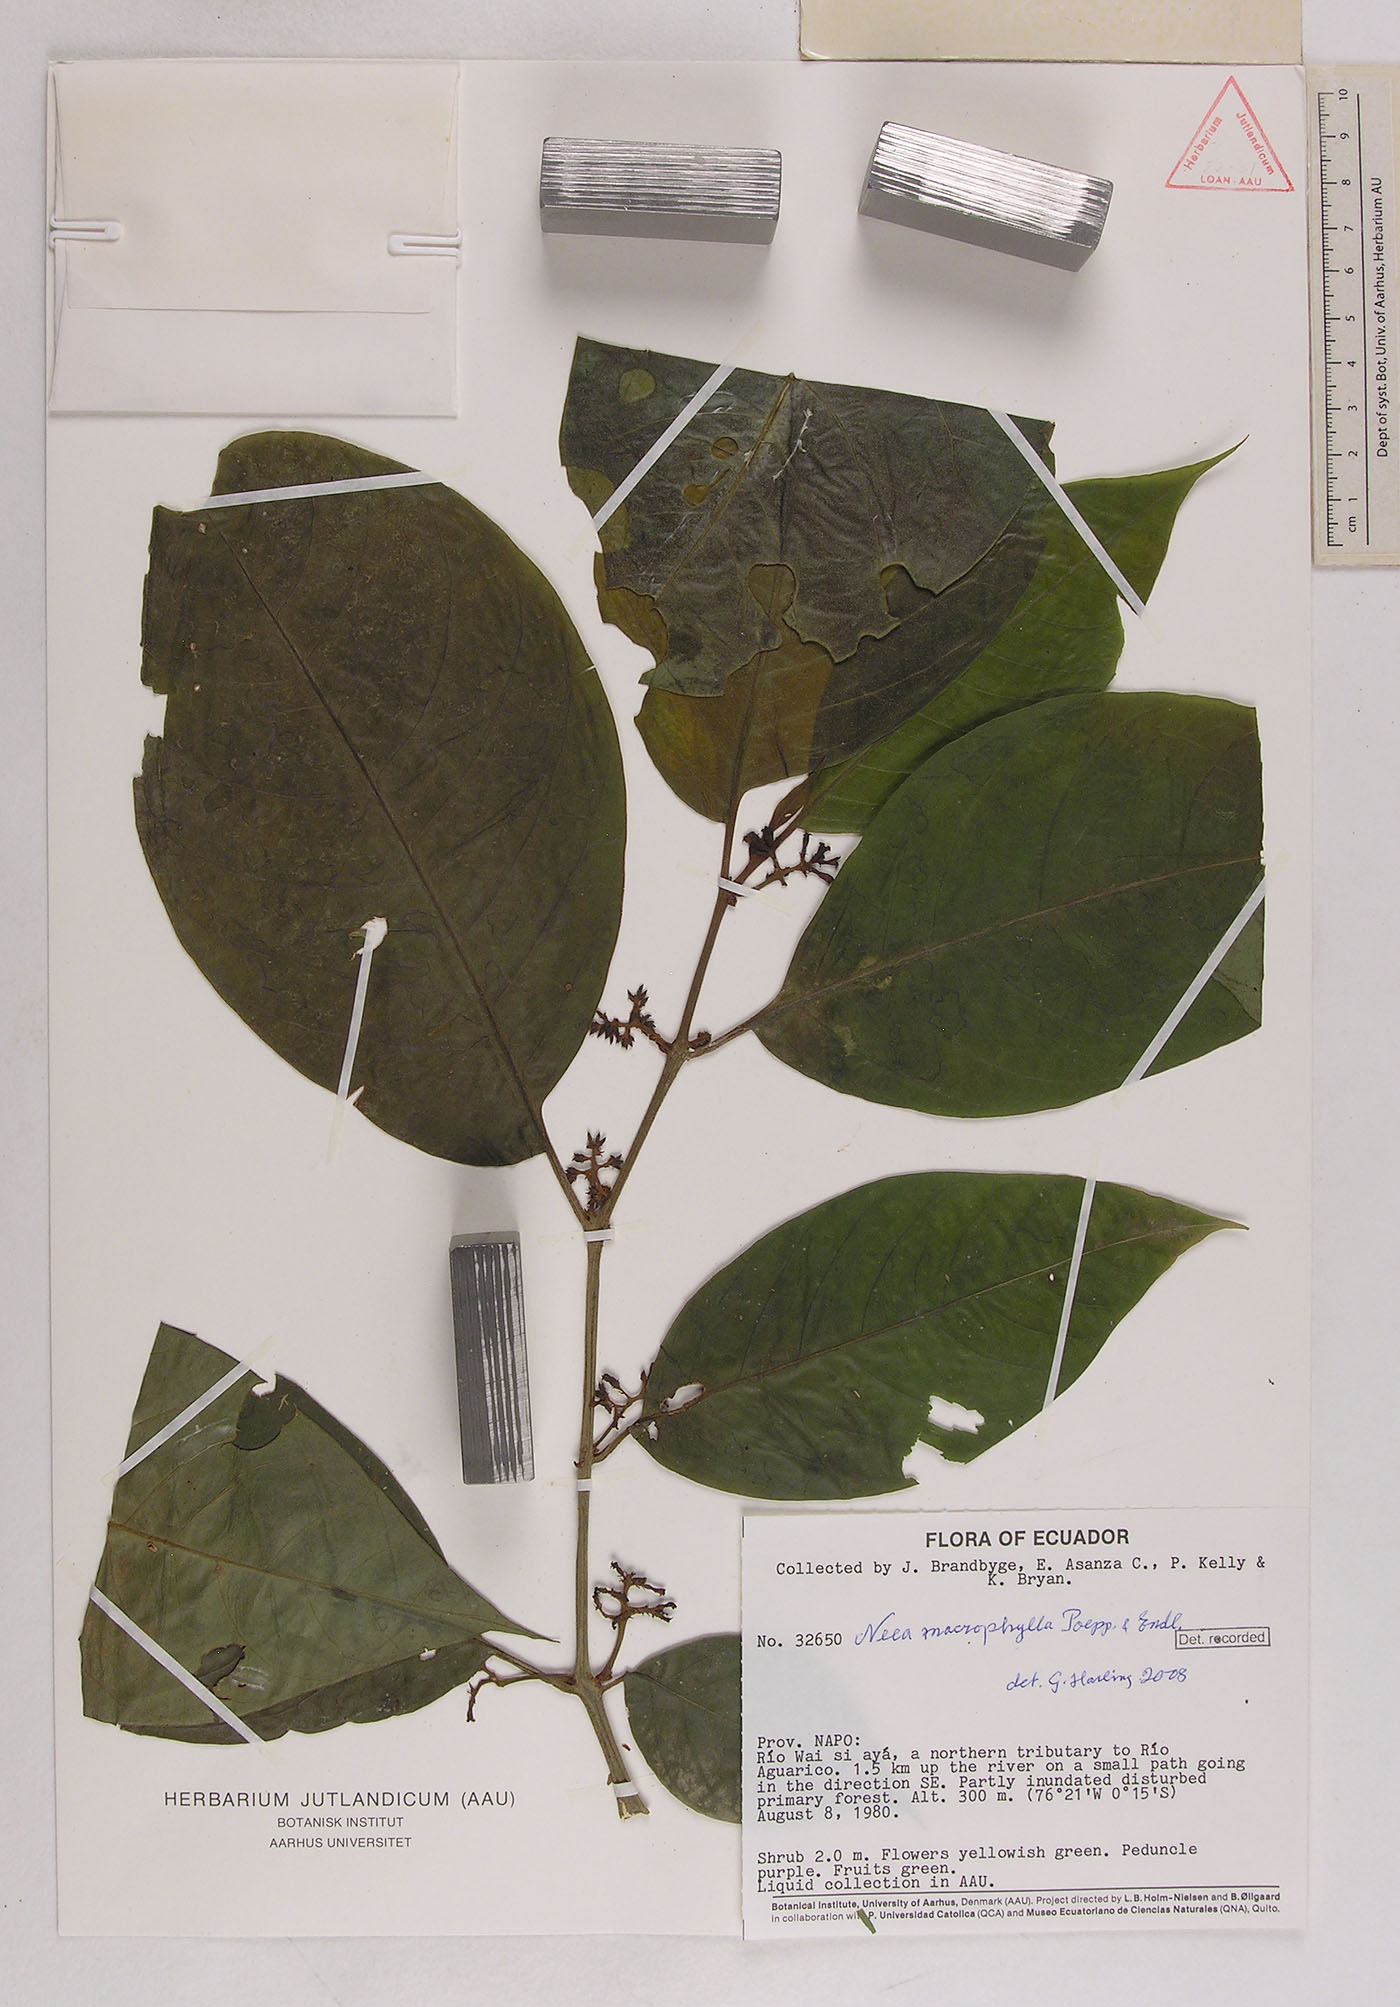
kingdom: Plantae
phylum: Tracheophyta
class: Magnoliopsida
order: Caryophyllales
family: Nyctaginaceae
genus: Neea
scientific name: Neea macrophylla
